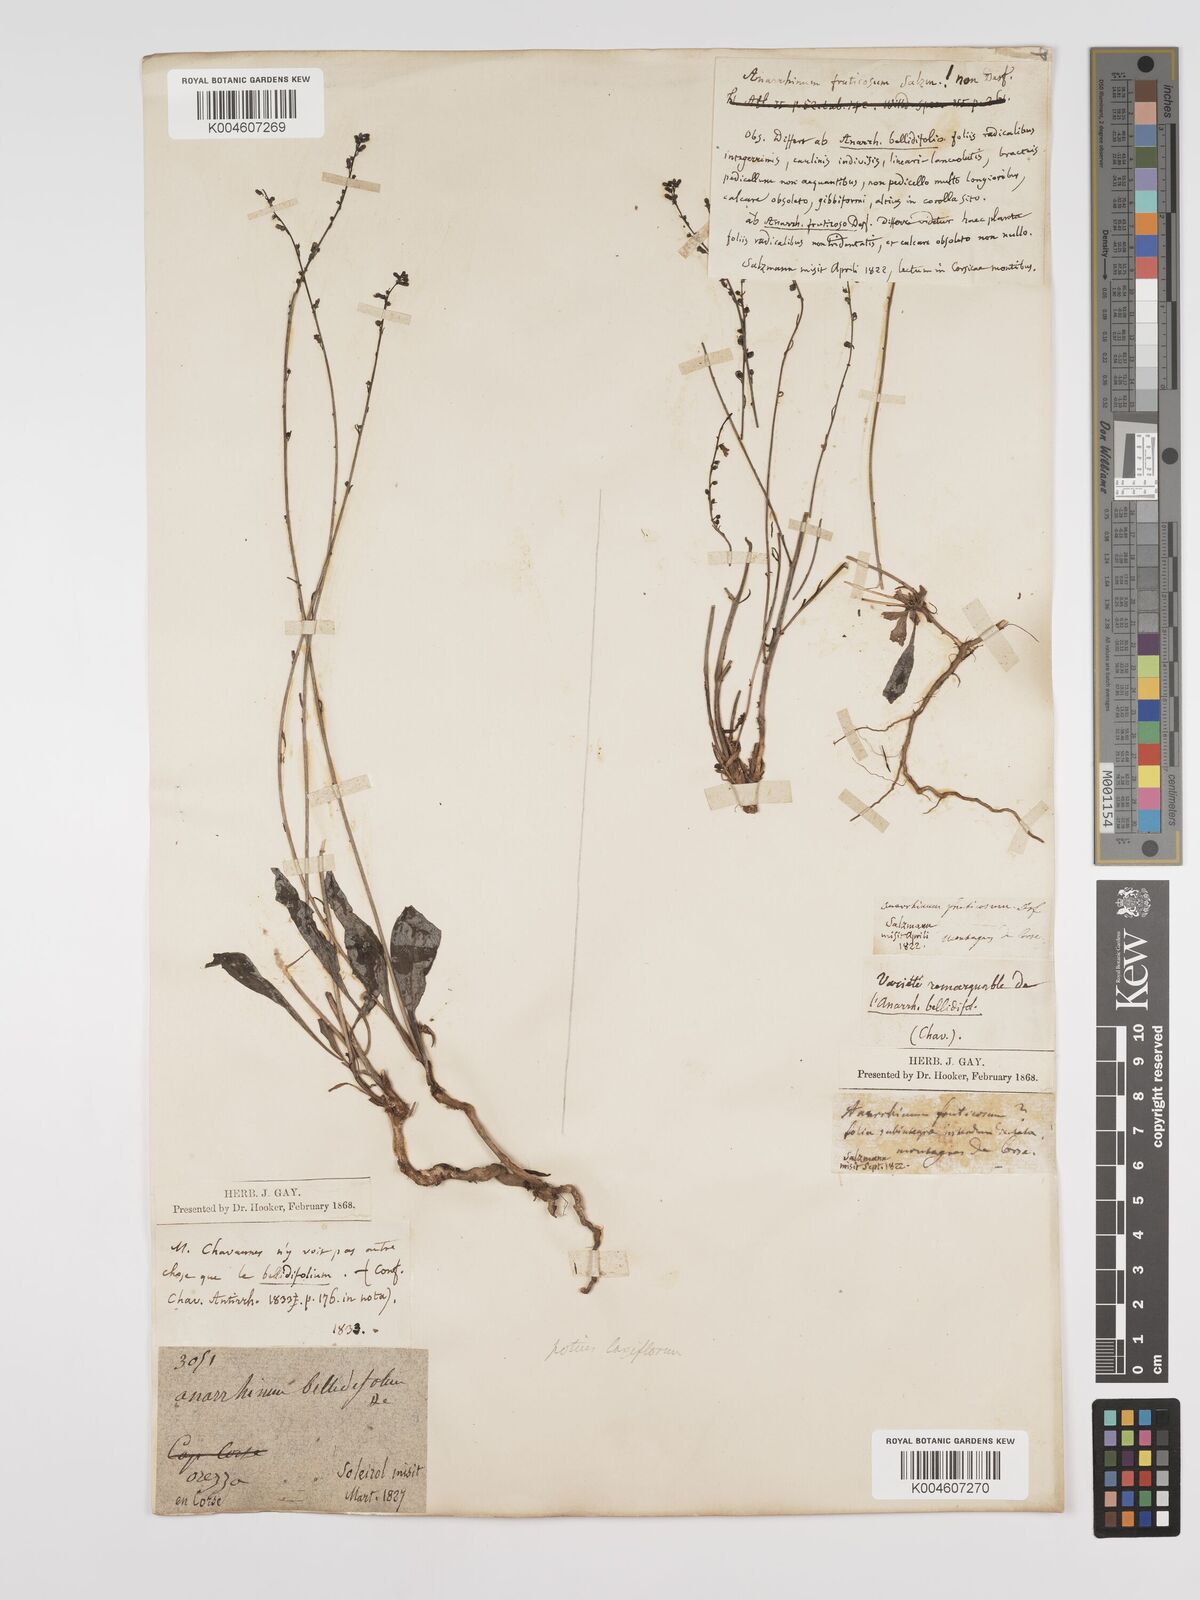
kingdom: Plantae
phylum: Tracheophyta
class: Magnoliopsida
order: Lamiales
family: Plantaginaceae
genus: Anarrhinum
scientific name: Anarrhinum corsicum
